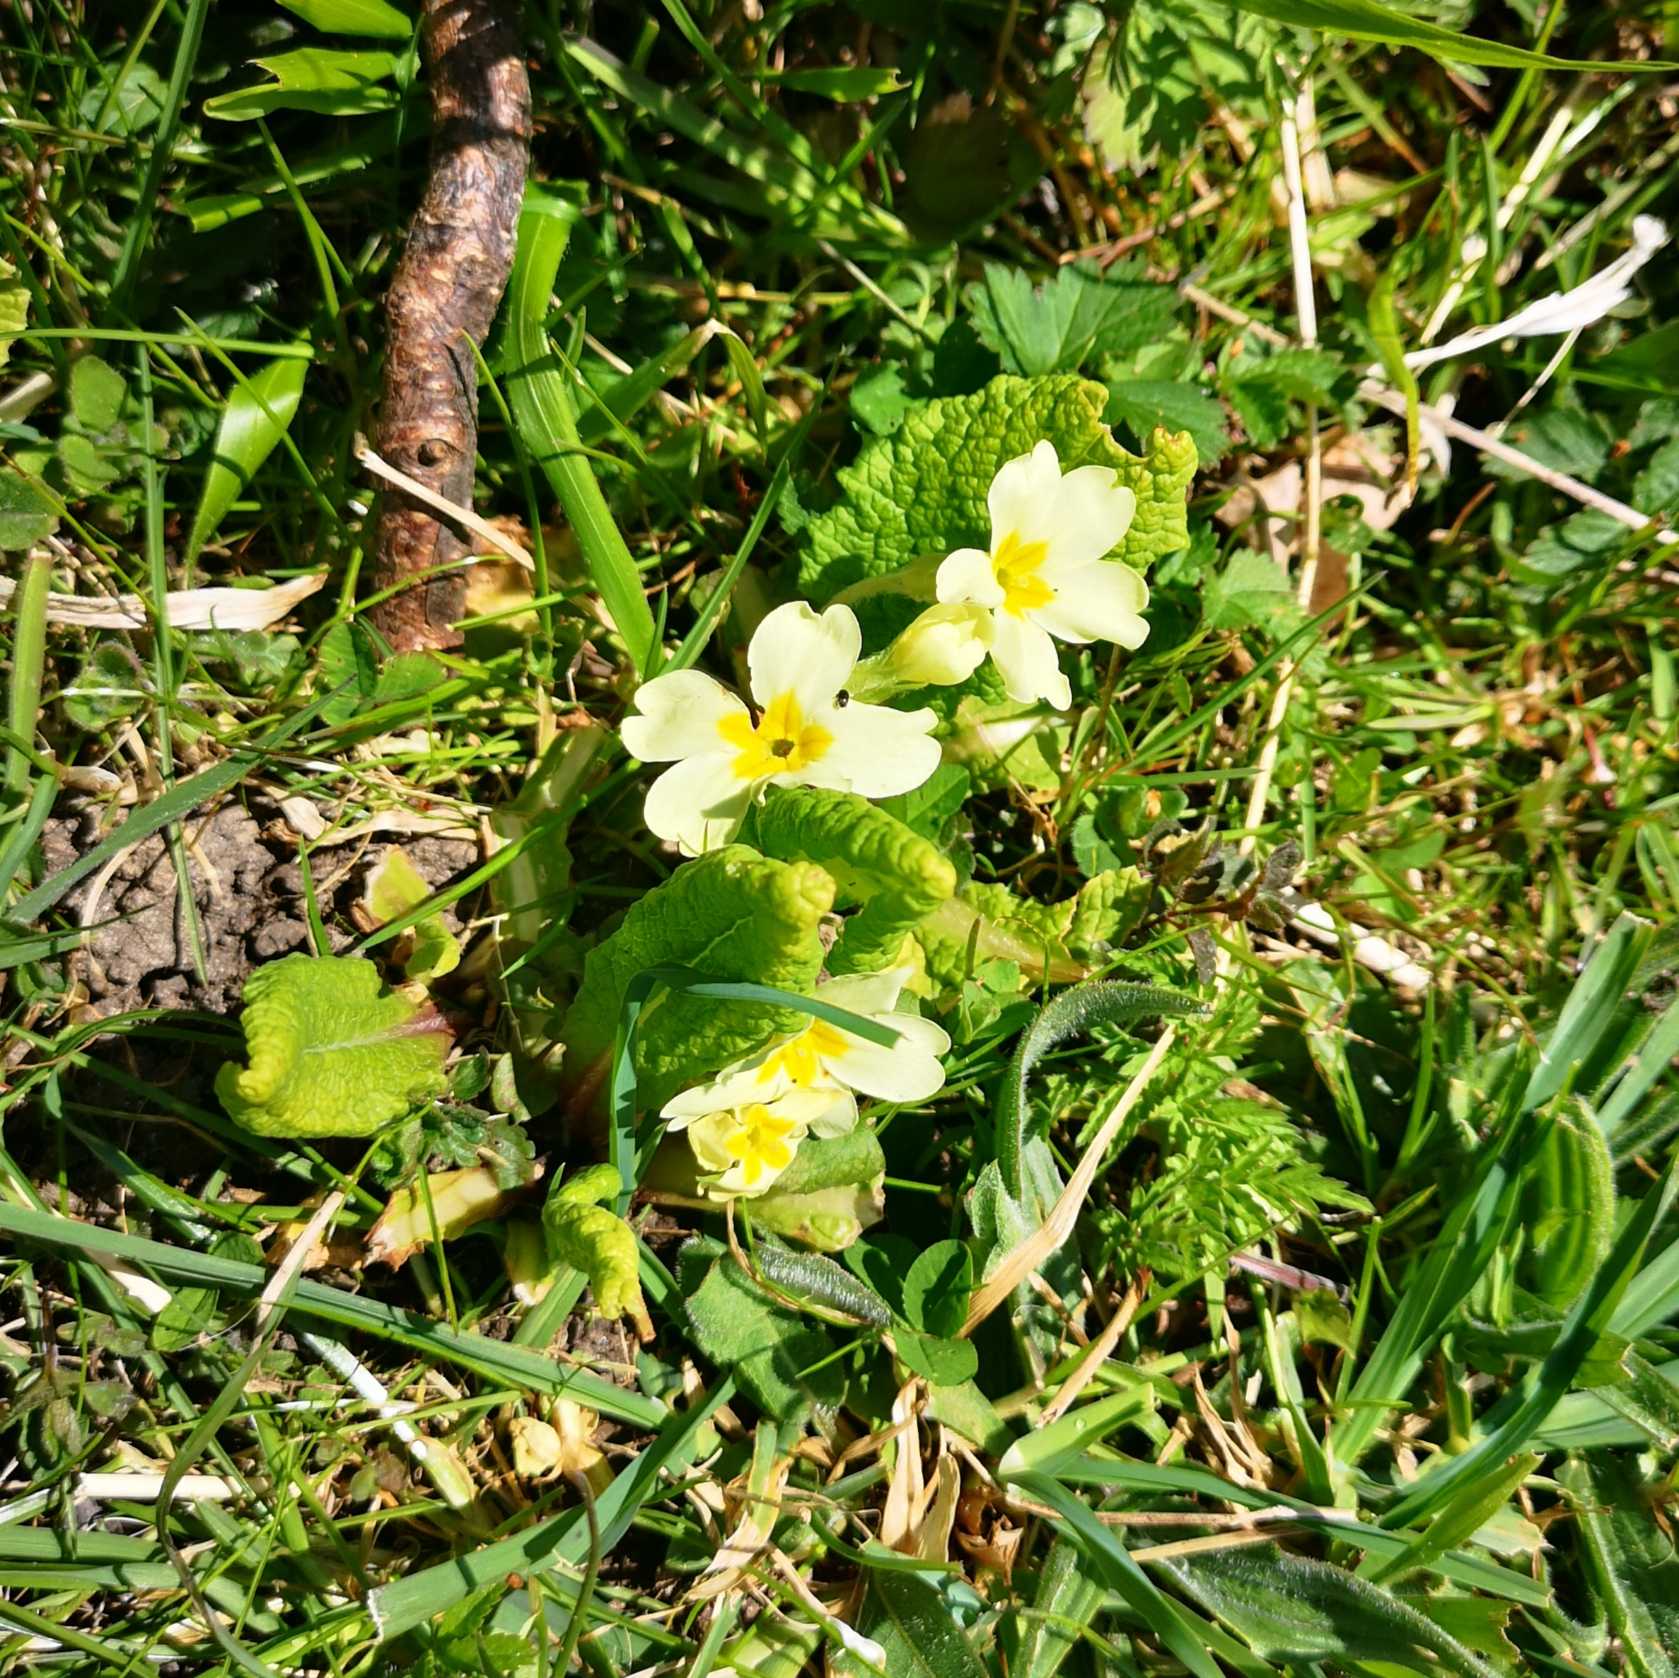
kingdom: Plantae
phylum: Tracheophyta
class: Magnoliopsida
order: Ericales
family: Primulaceae
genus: Primula
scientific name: Primula vulgaris
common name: Storblomstret kodriver
